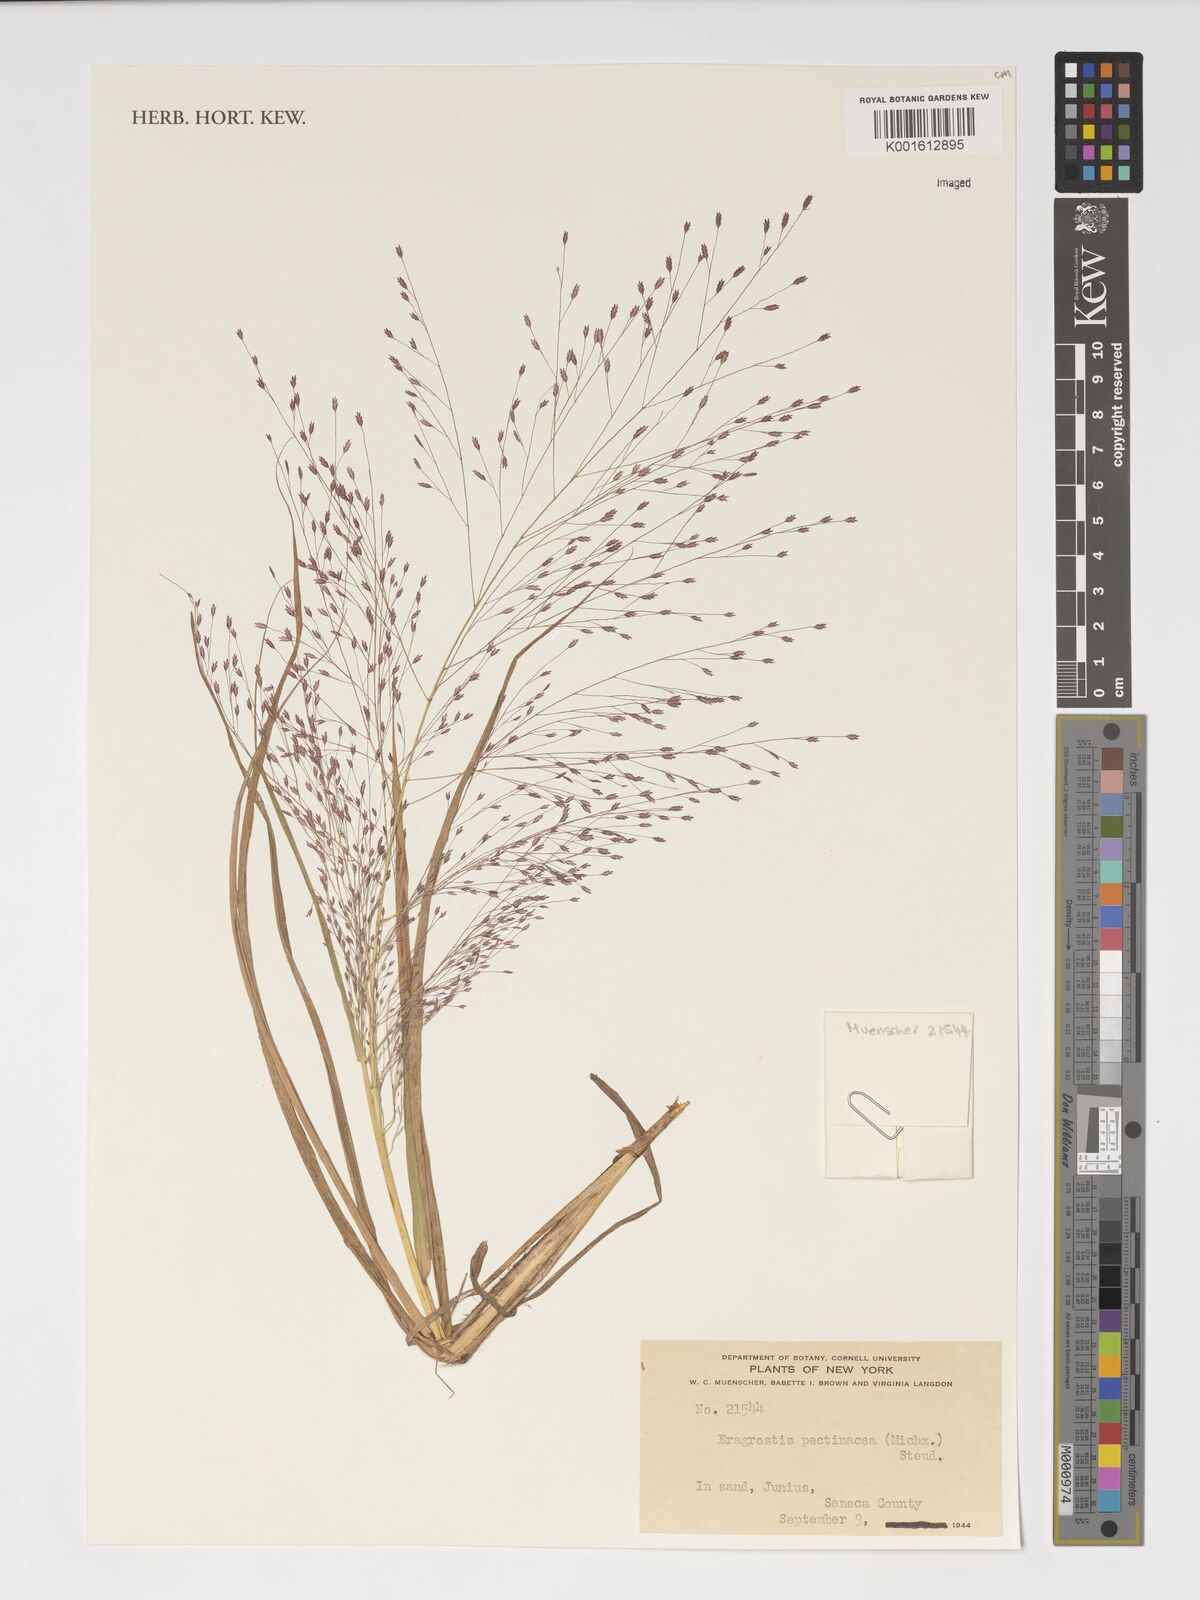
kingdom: Plantae
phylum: Tracheophyta
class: Liliopsida
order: Poales
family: Poaceae
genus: Eragrostis
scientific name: Eragrostis pectinacea
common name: Tufted lovegrass
